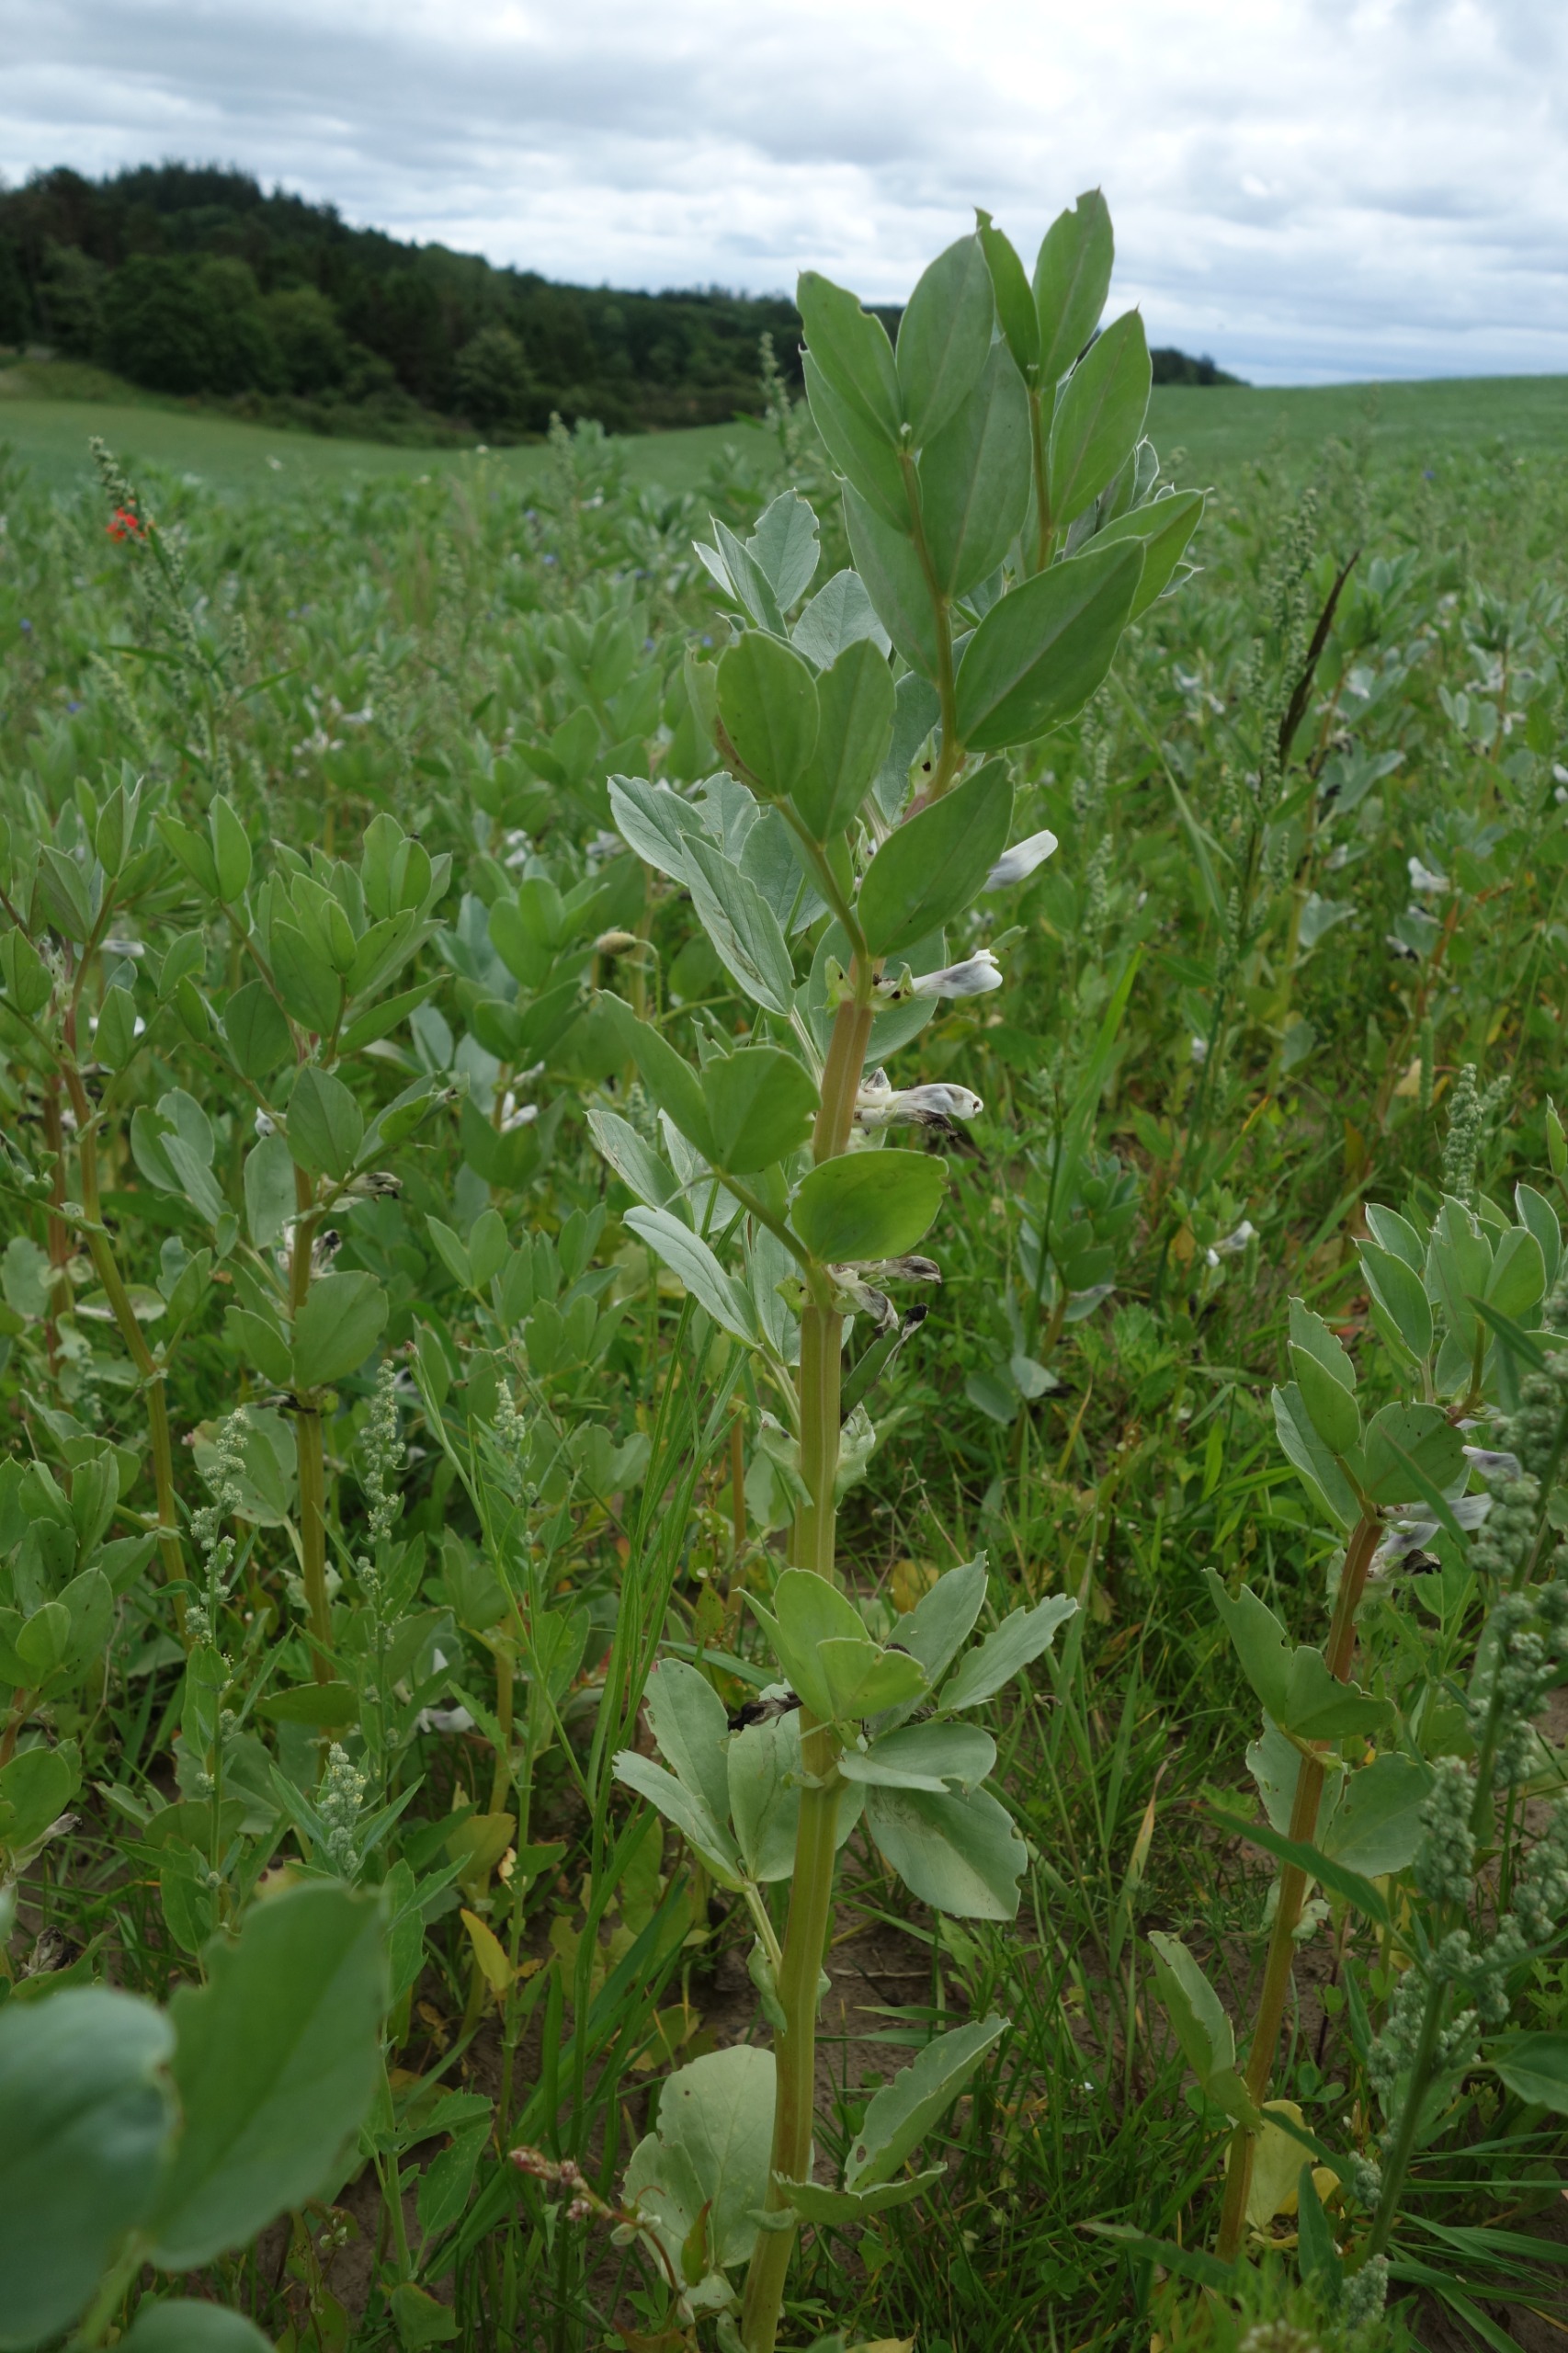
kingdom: Plantae
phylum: Tracheophyta
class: Magnoliopsida
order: Fabales
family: Fabaceae
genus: Vicia
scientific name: Vicia faba
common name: Hestebønne
